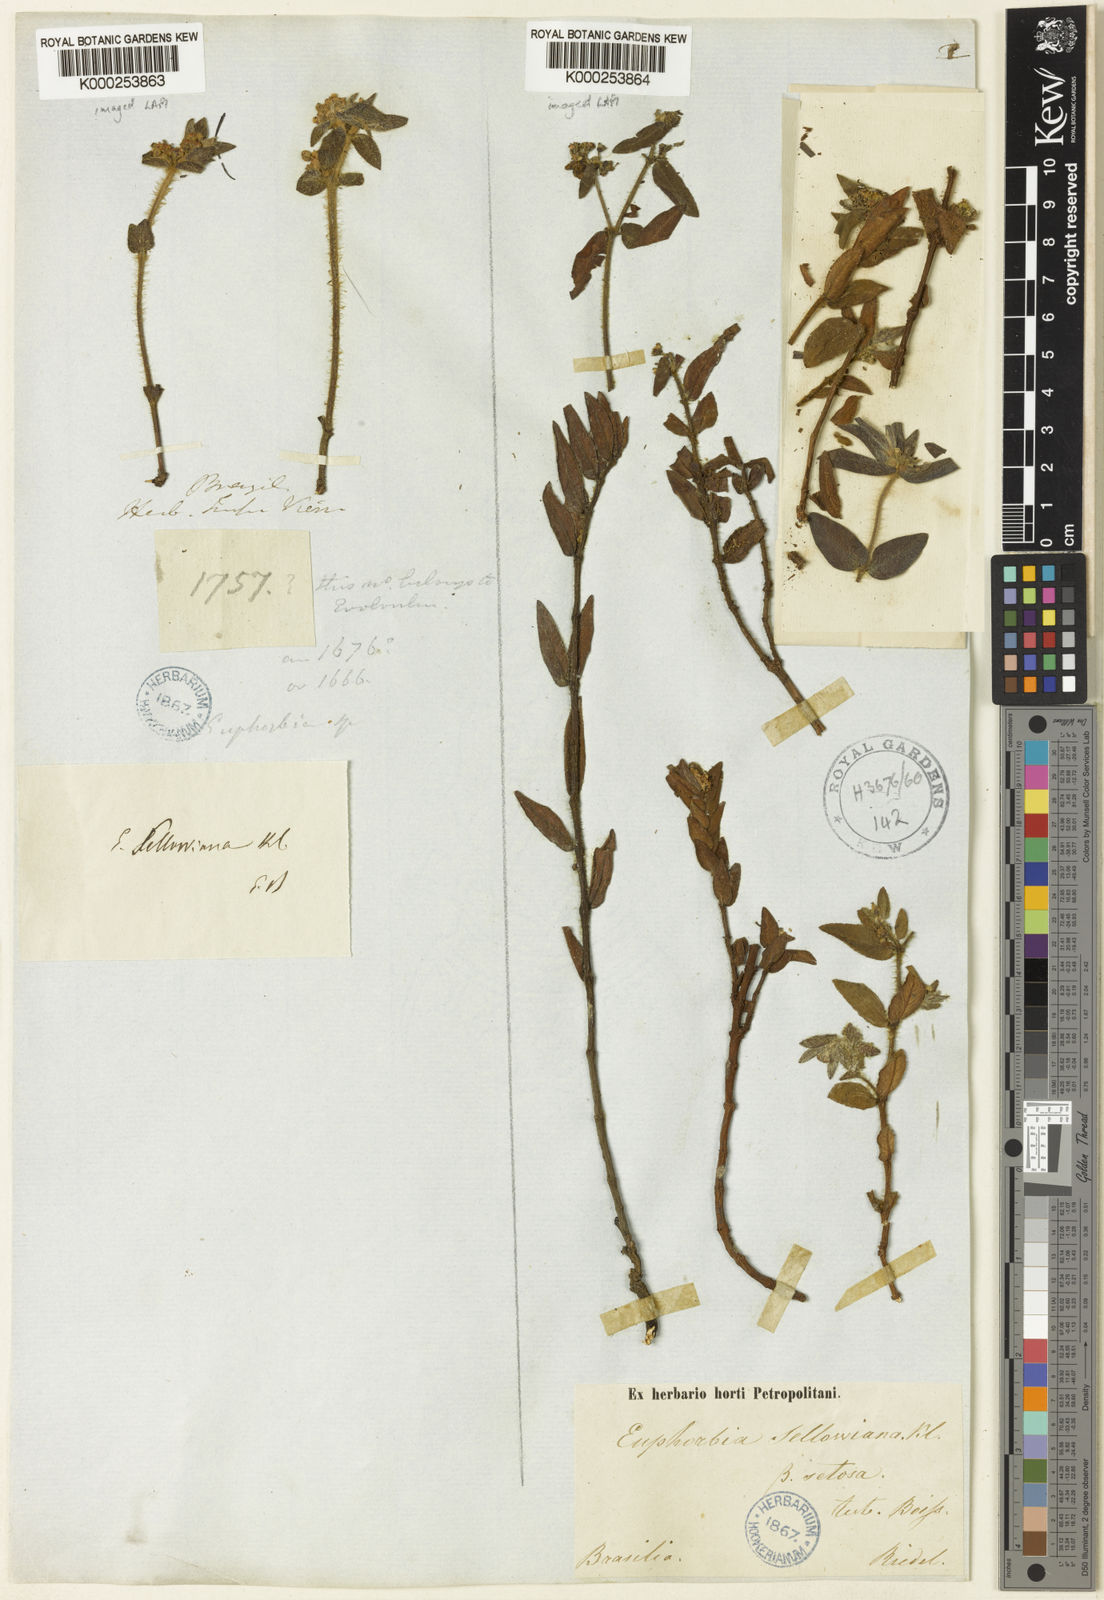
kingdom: Plantae
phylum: Tracheophyta
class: Magnoliopsida
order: Malpighiales
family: Euphorbiaceae
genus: Euphorbia
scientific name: Euphorbia selloi
